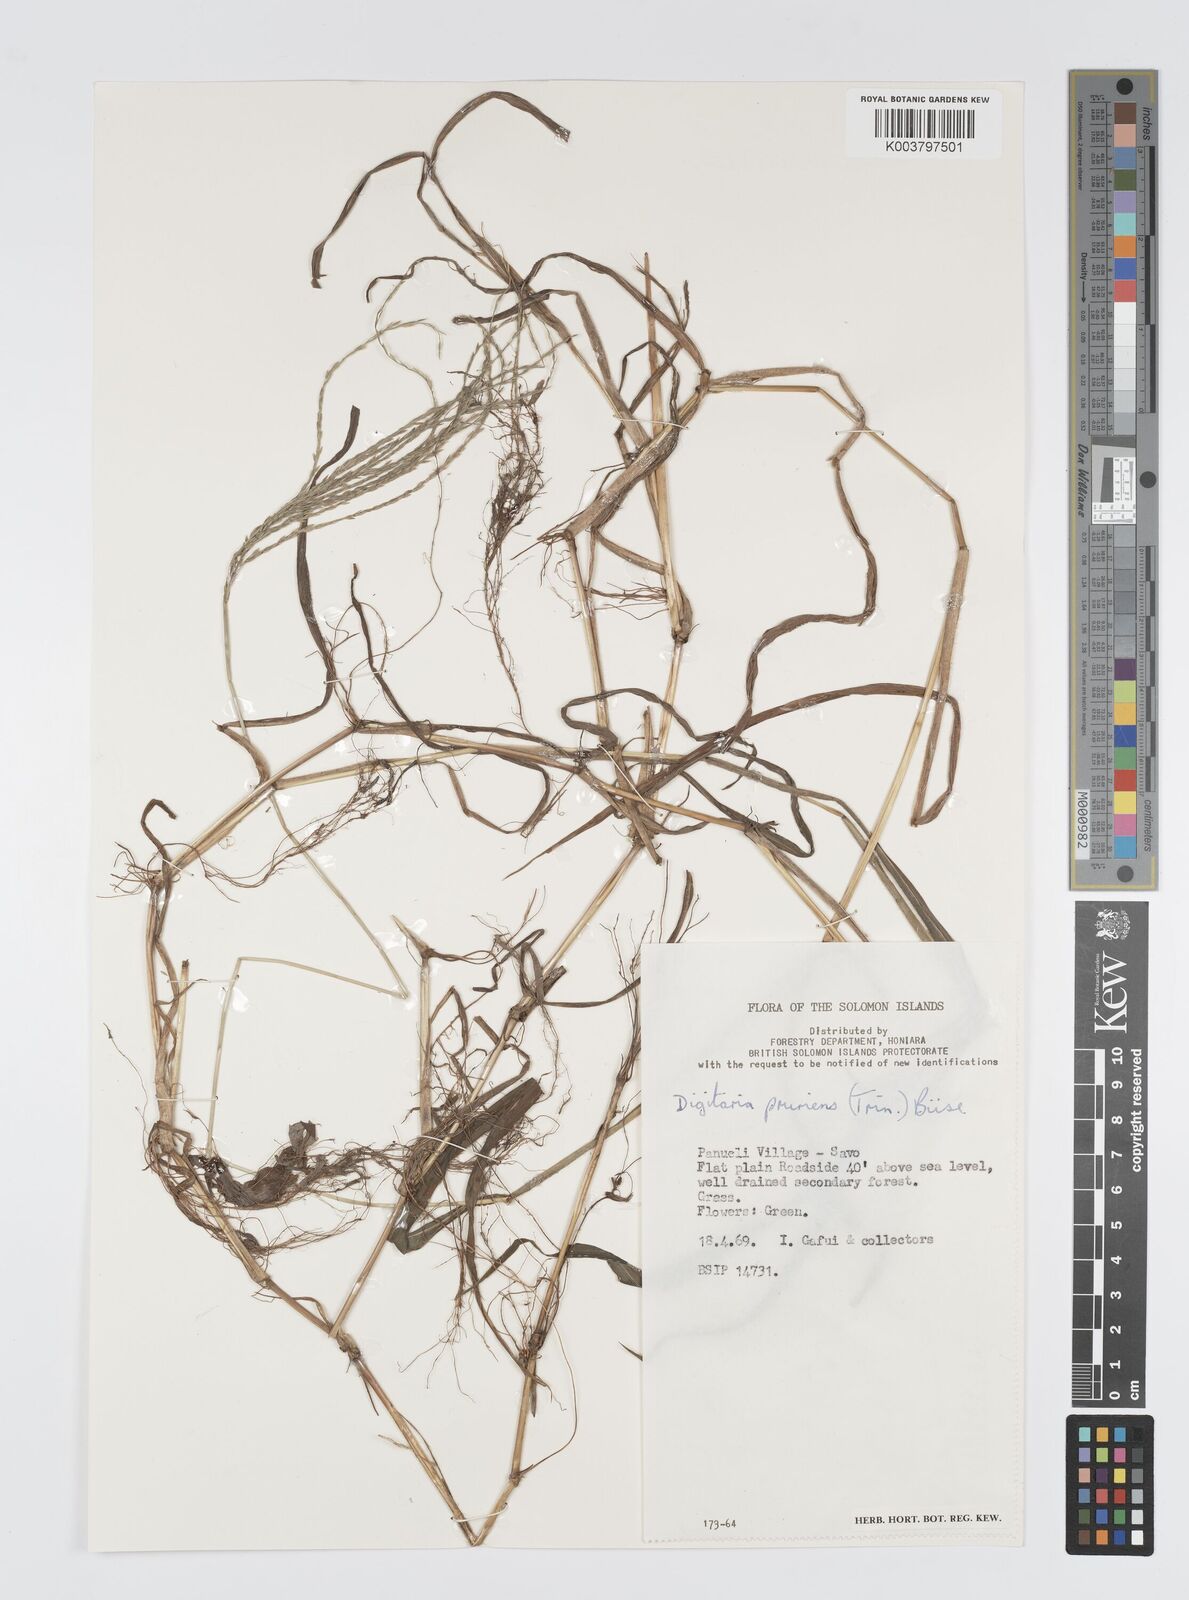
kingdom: Plantae
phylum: Tracheophyta
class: Liliopsida
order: Poales
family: Poaceae
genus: Digitaria
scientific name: Digitaria setigera
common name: East indian crabgrass
